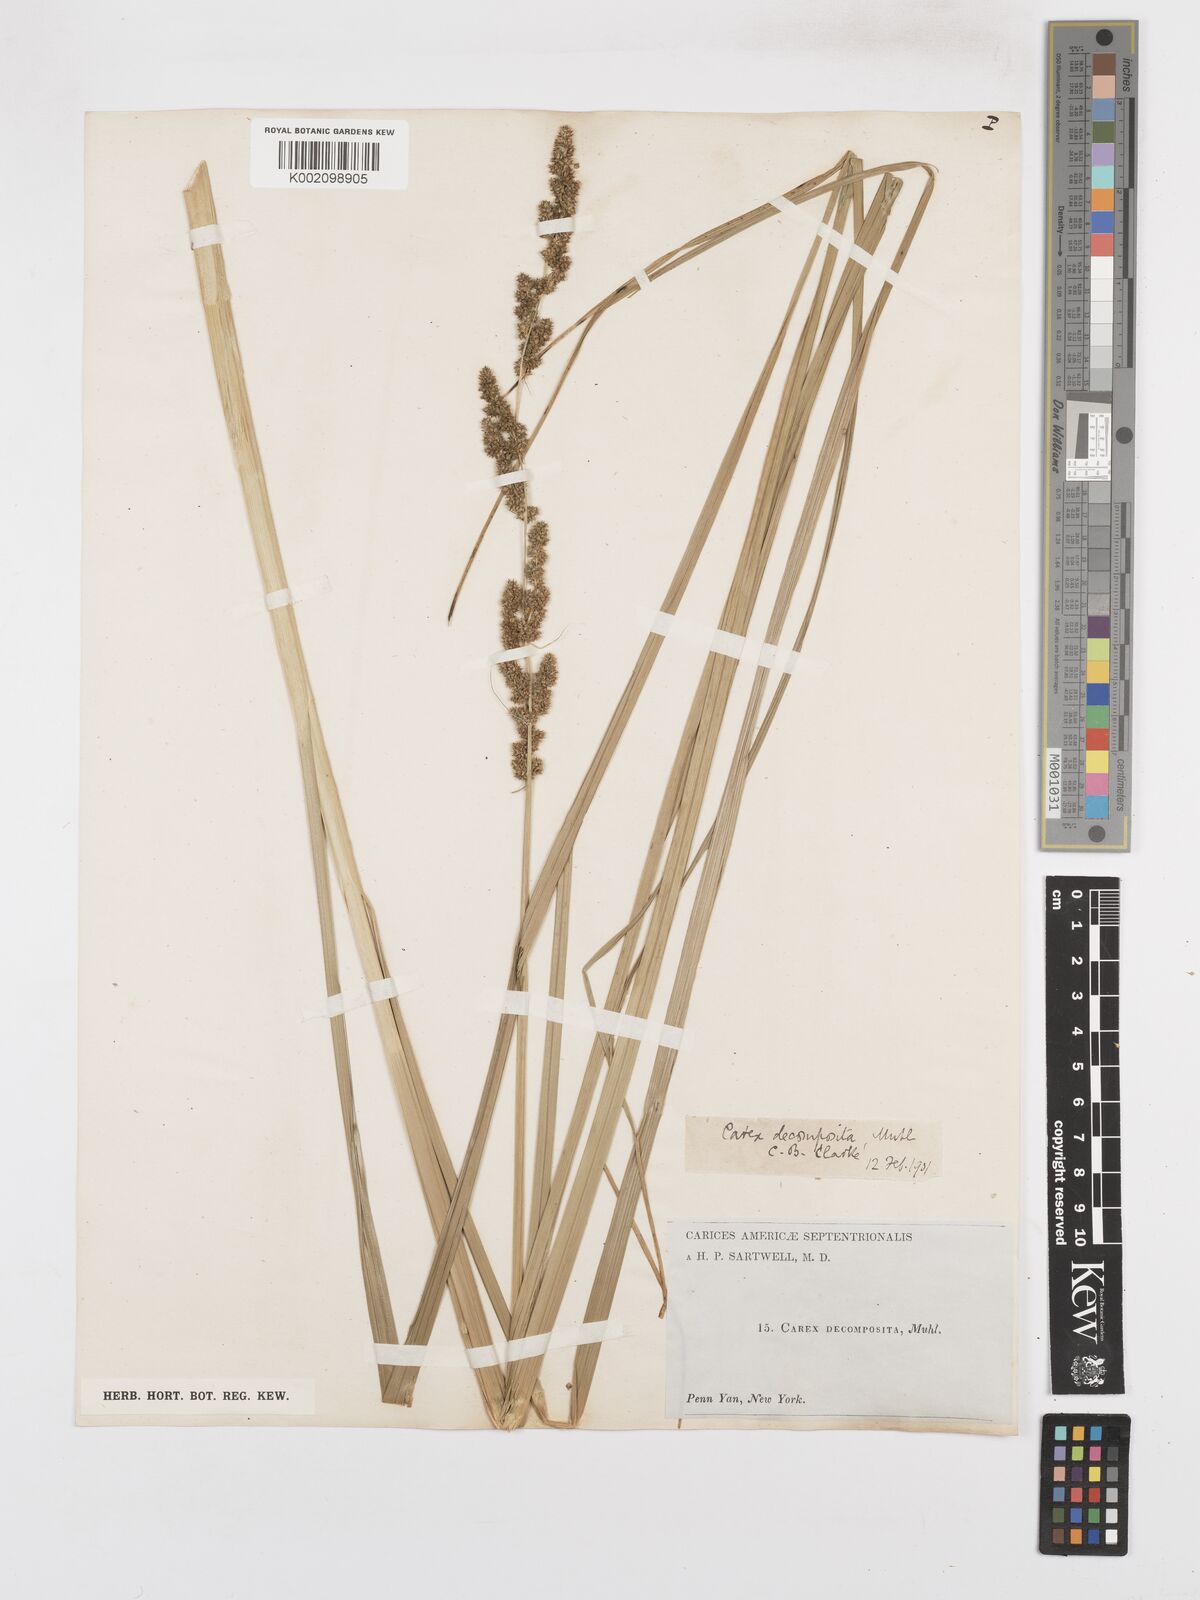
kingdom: Plantae
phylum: Tracheophyta
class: Liliopsida
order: Poales
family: Cyperaceae
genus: Carex
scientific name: Carex decomposita
